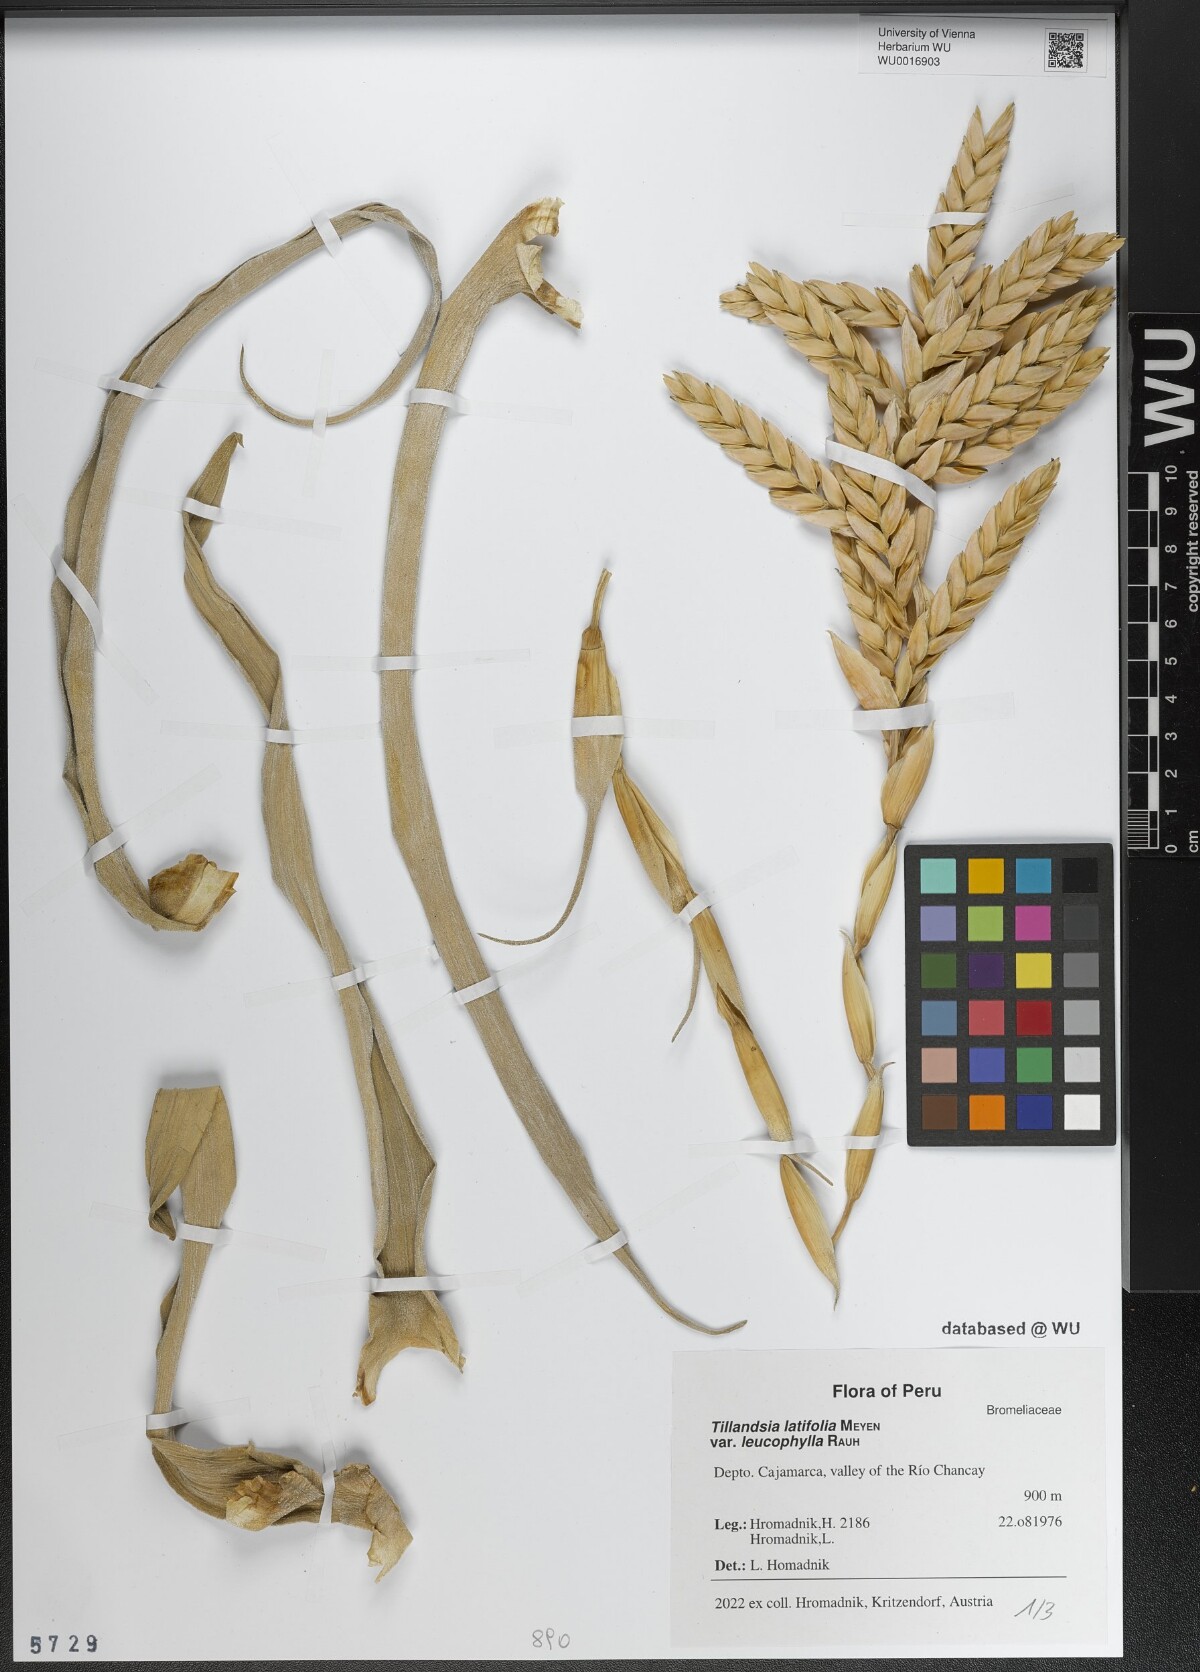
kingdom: Plantae
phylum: Tracheophyta
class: Liliopsida
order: Poales
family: Bromeliaceae
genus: Tillandsia
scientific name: Tillandsia latifolia
